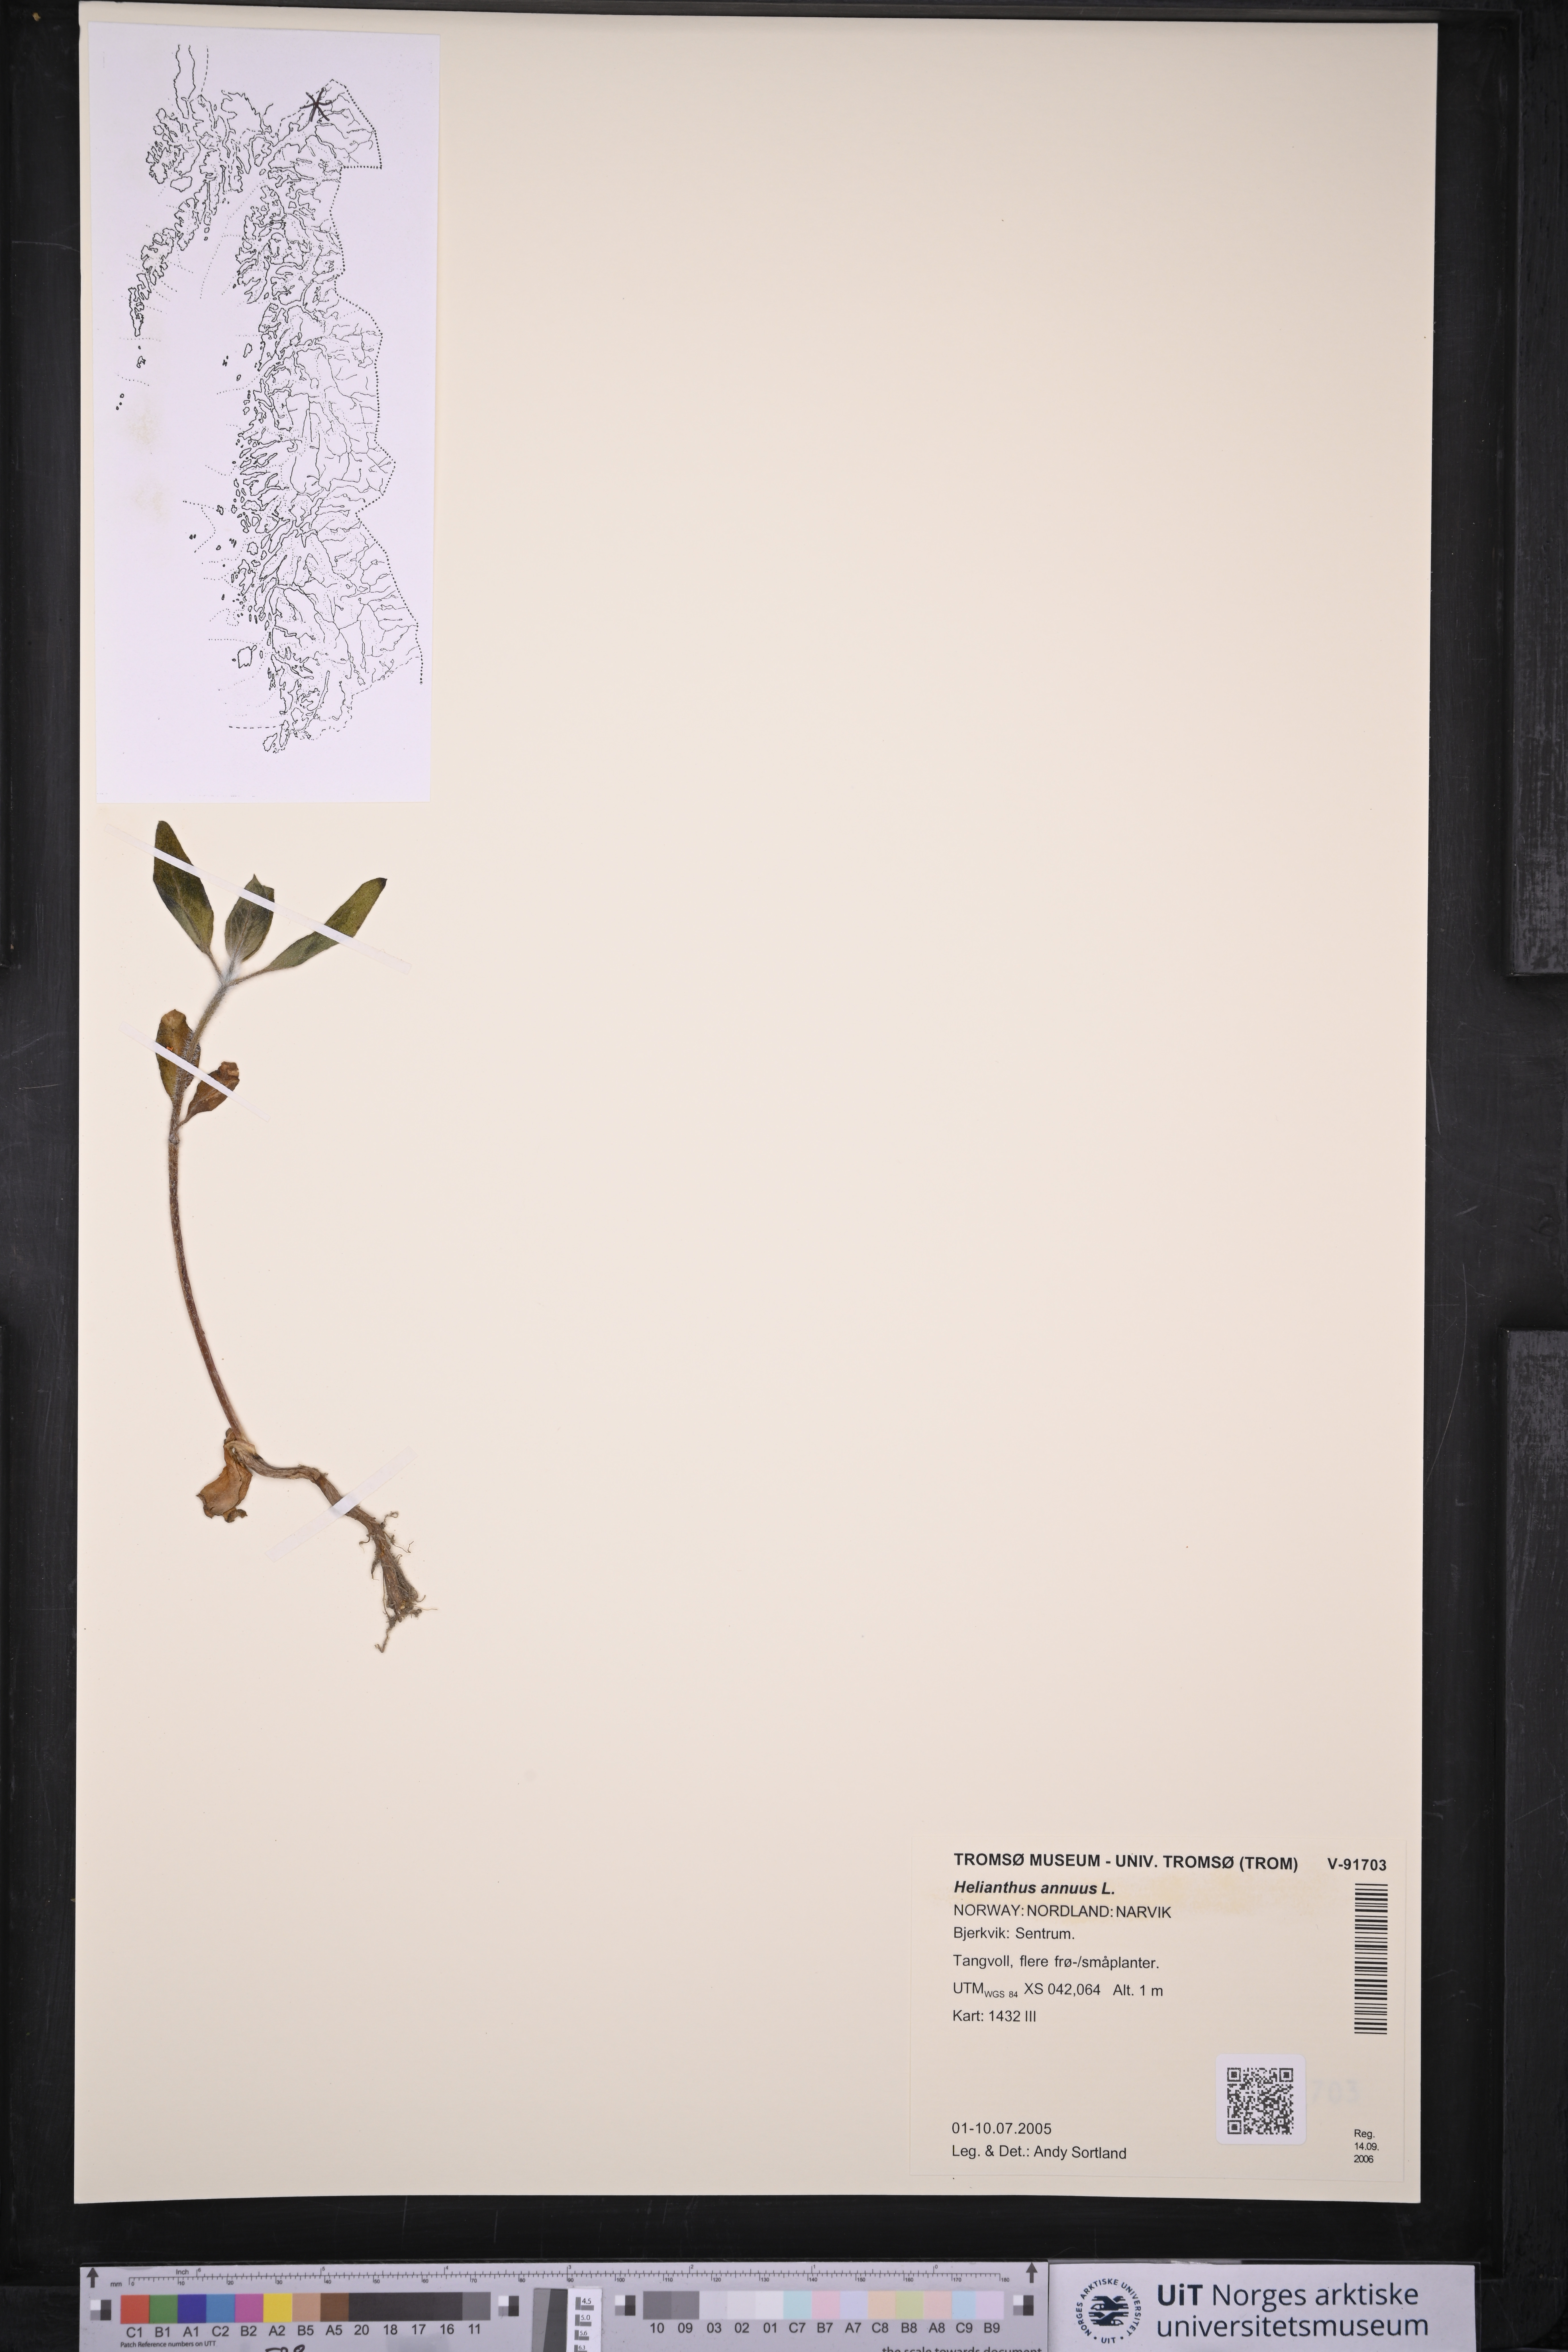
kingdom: Plantae
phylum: Tracheophyta
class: Magnoliopsida
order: Asterales
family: Asteraceae
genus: Helianthus
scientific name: Helianthus annuus
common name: Sunflower
